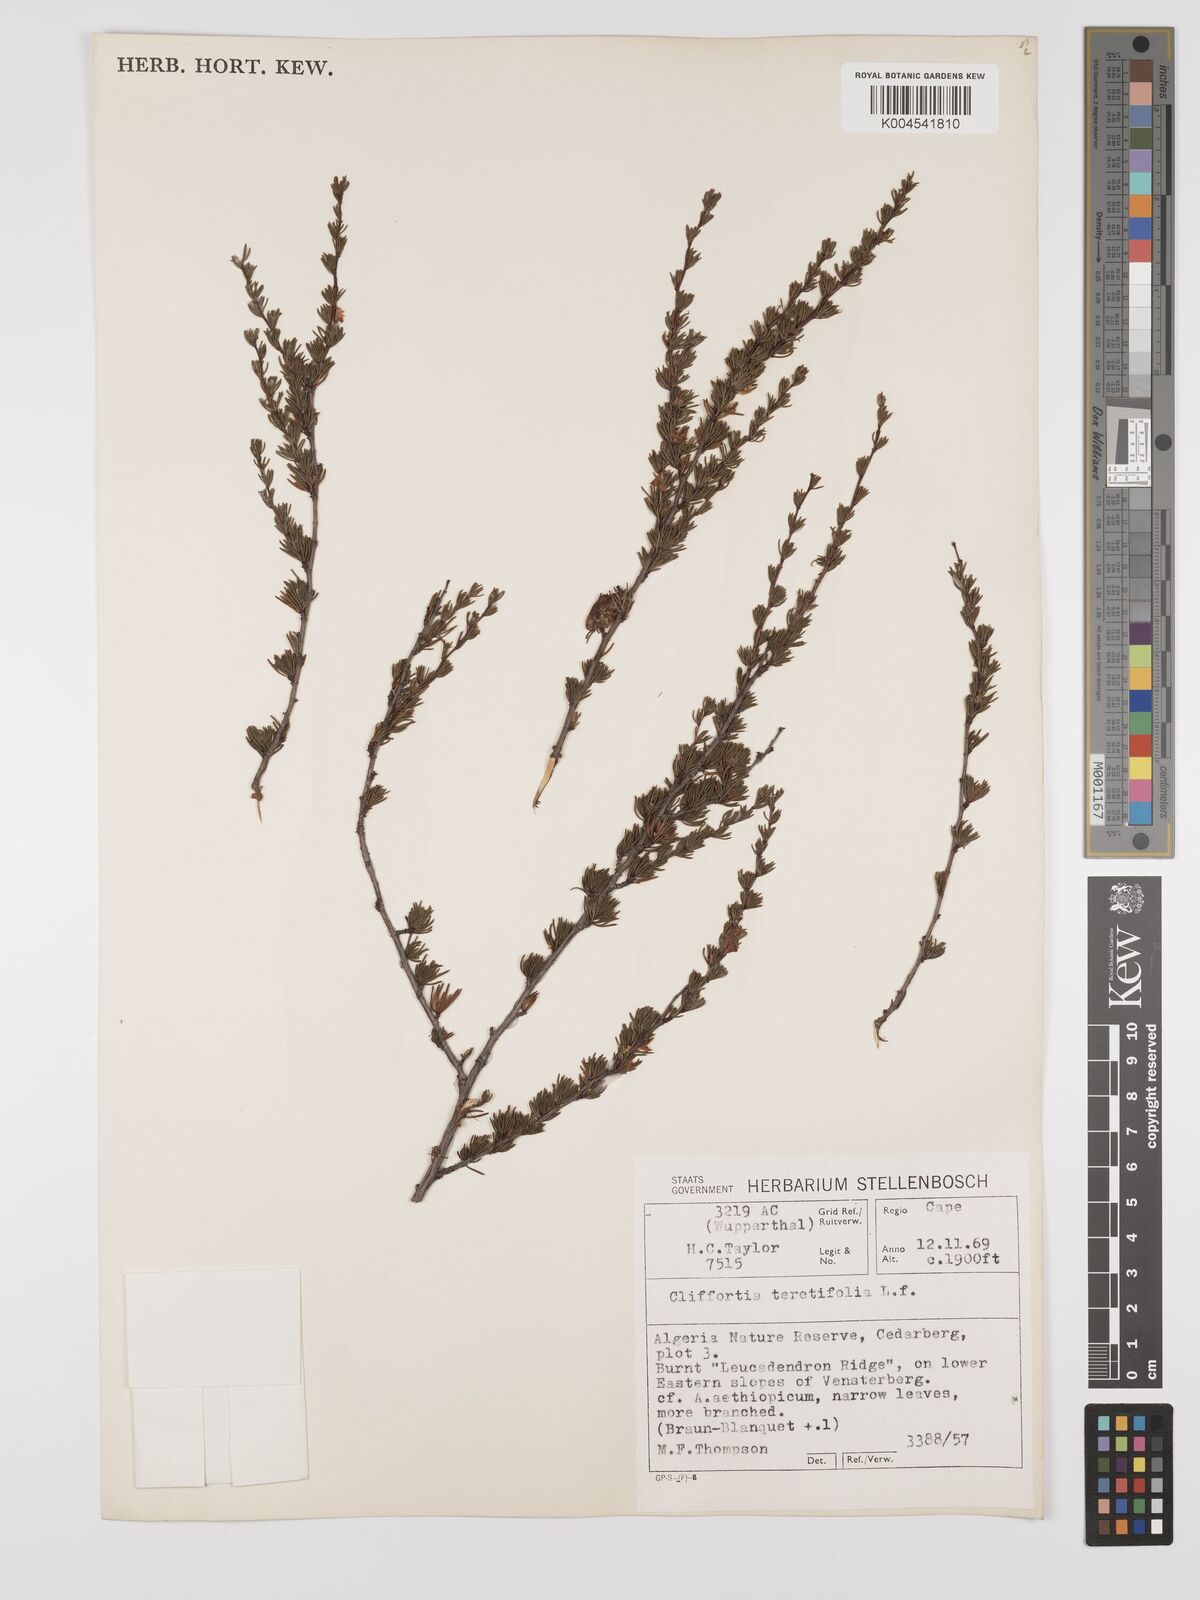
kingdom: Plantae
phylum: Tracheophyta
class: Magnoliopsida
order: Rosales
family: Rosaceae
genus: Cliffortia
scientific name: Cliffortia teretifolia
